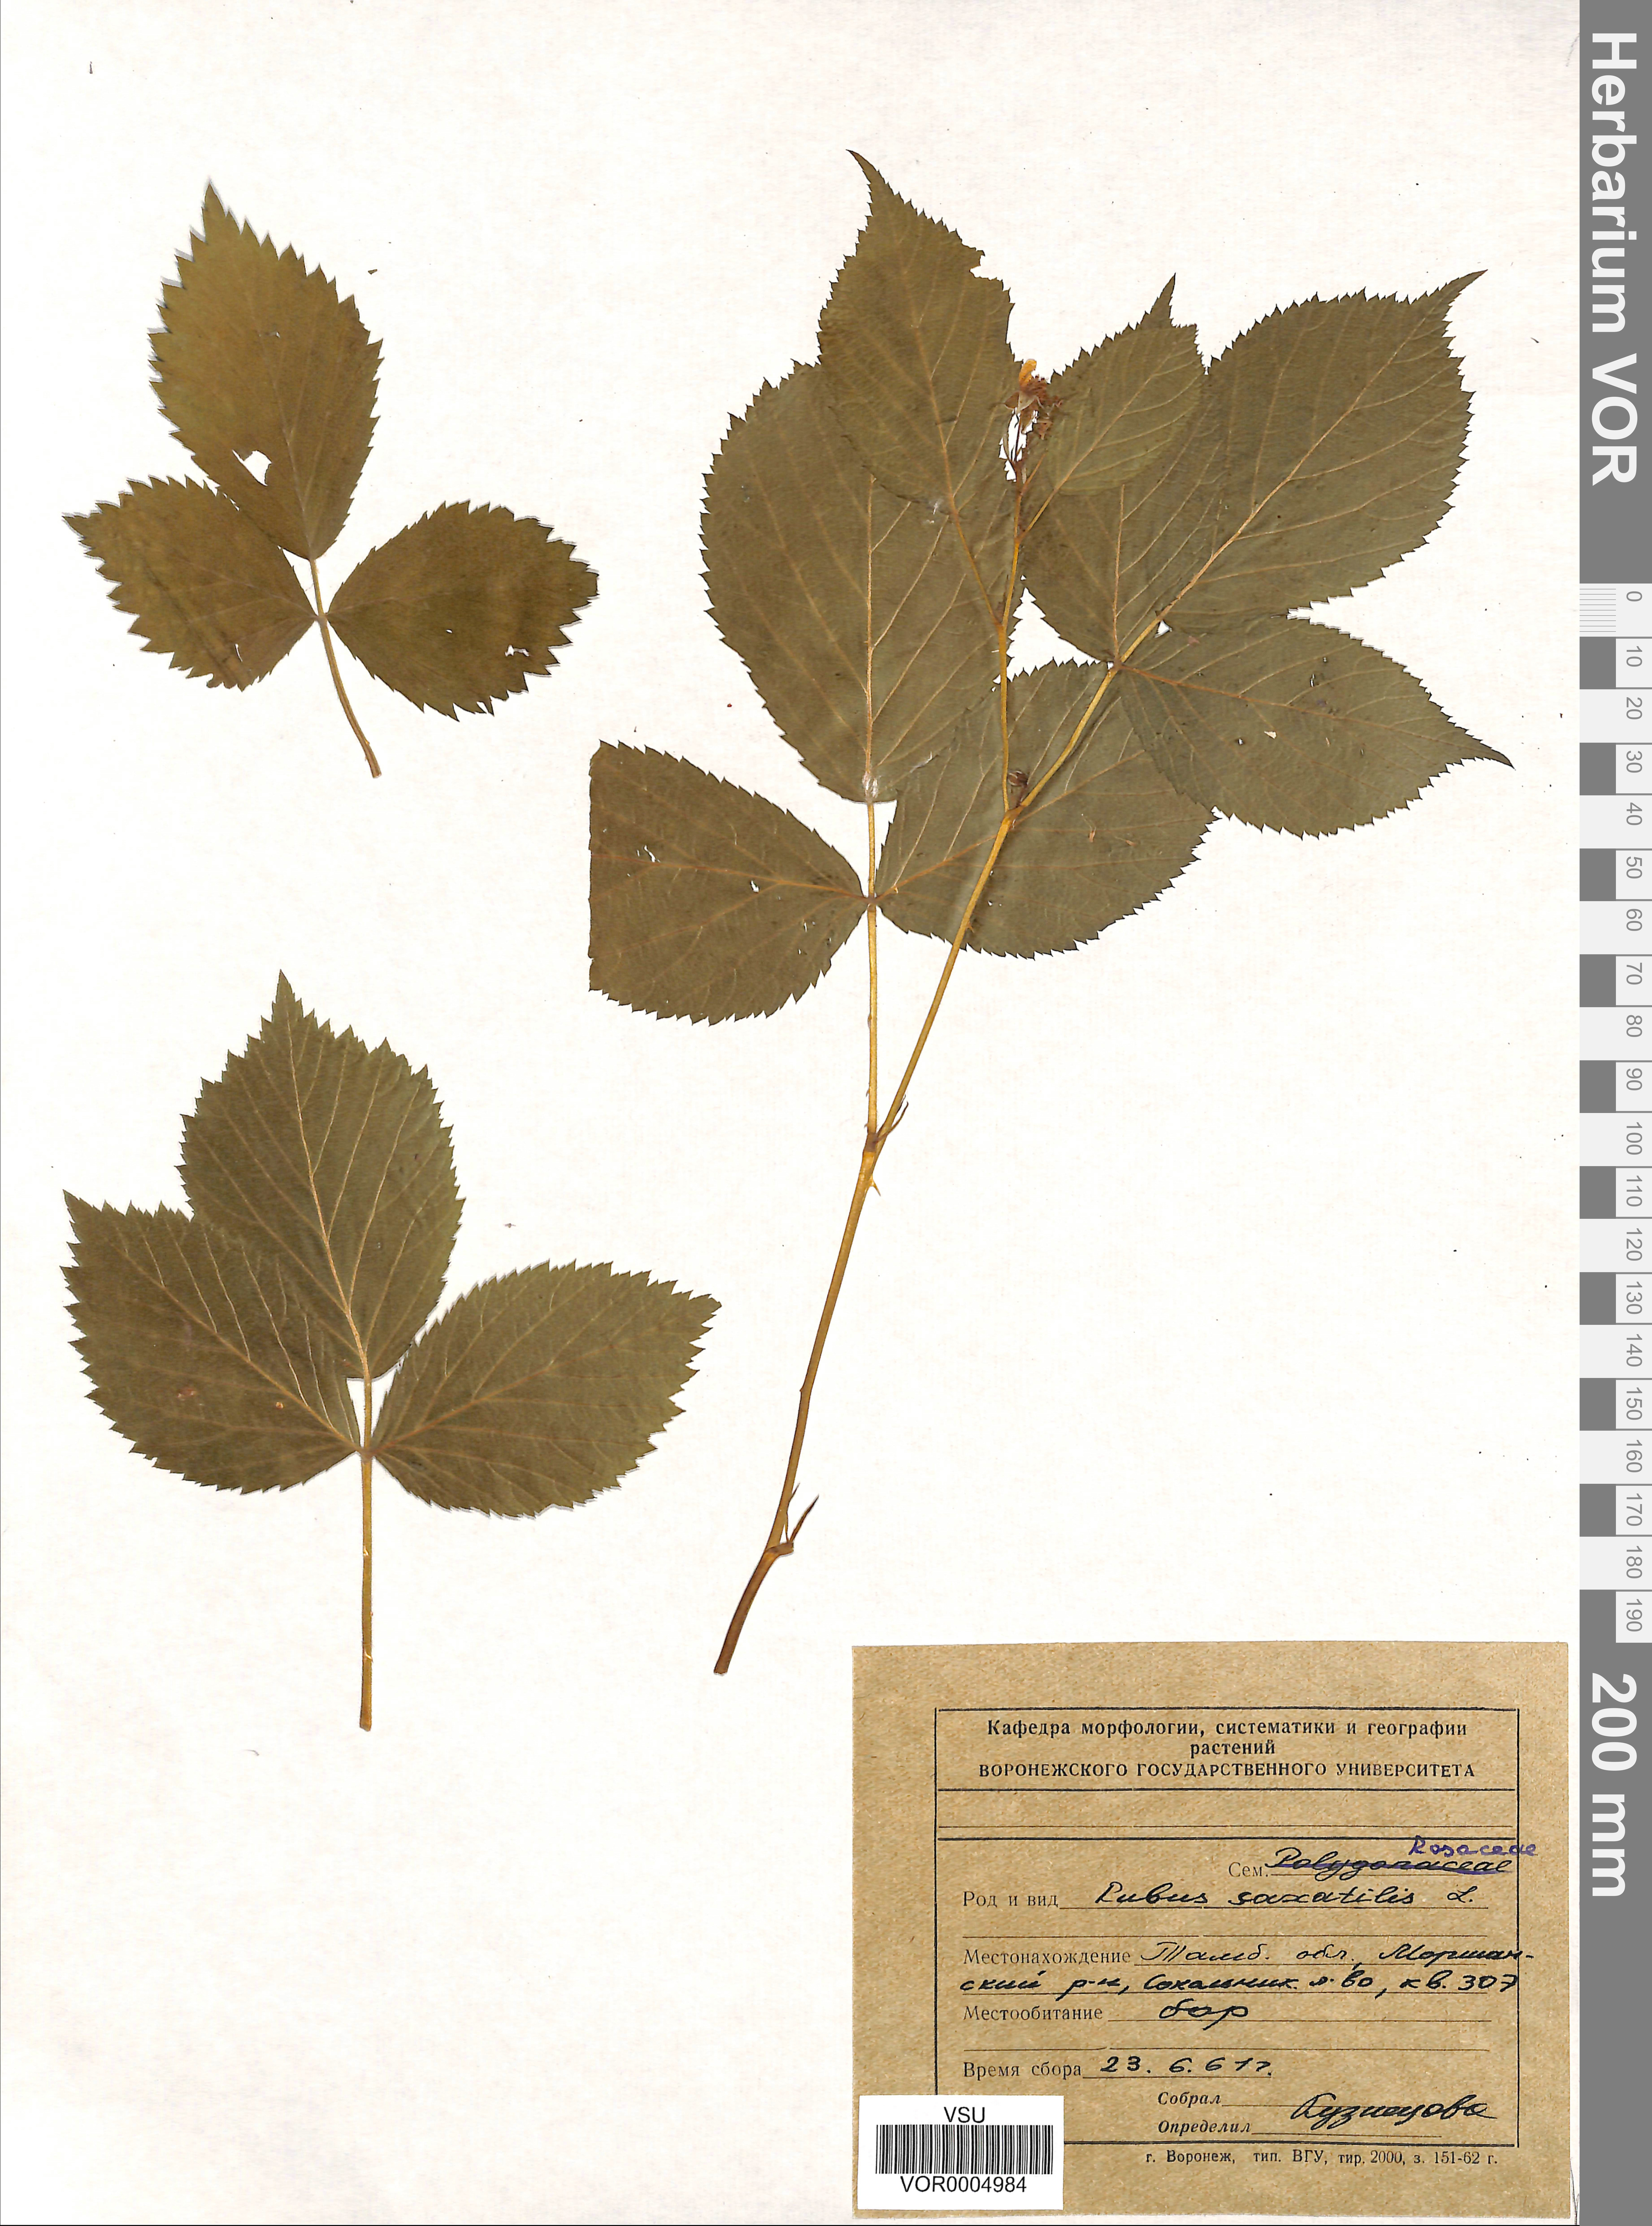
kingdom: Plantae
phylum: Tracheophyta
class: Magnoliopsida
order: Rosales
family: Rosaceae
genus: Rubus
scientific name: Rubus caesius
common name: Dewberry
